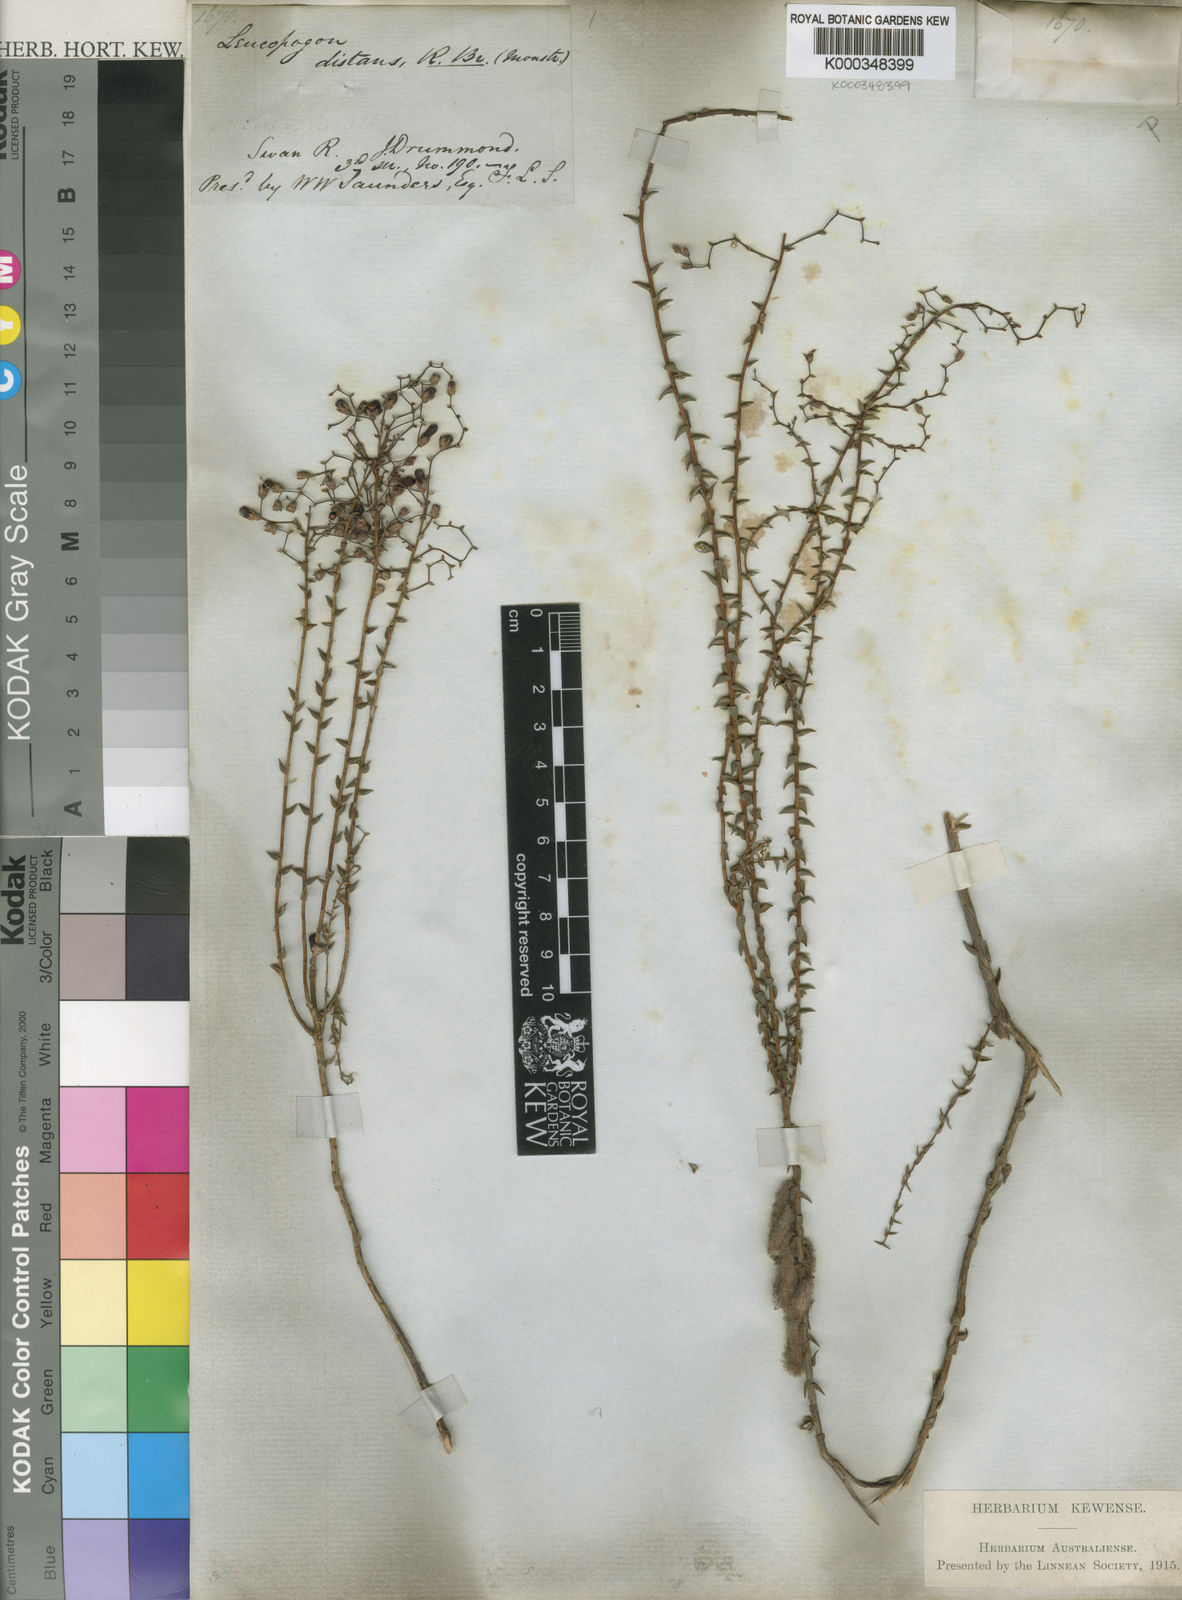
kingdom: Plantae
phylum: Tracheophyta
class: Magnoliopsida
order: Ericales
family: Ericaceae
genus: Leucopogon
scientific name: Leucopogon distans
